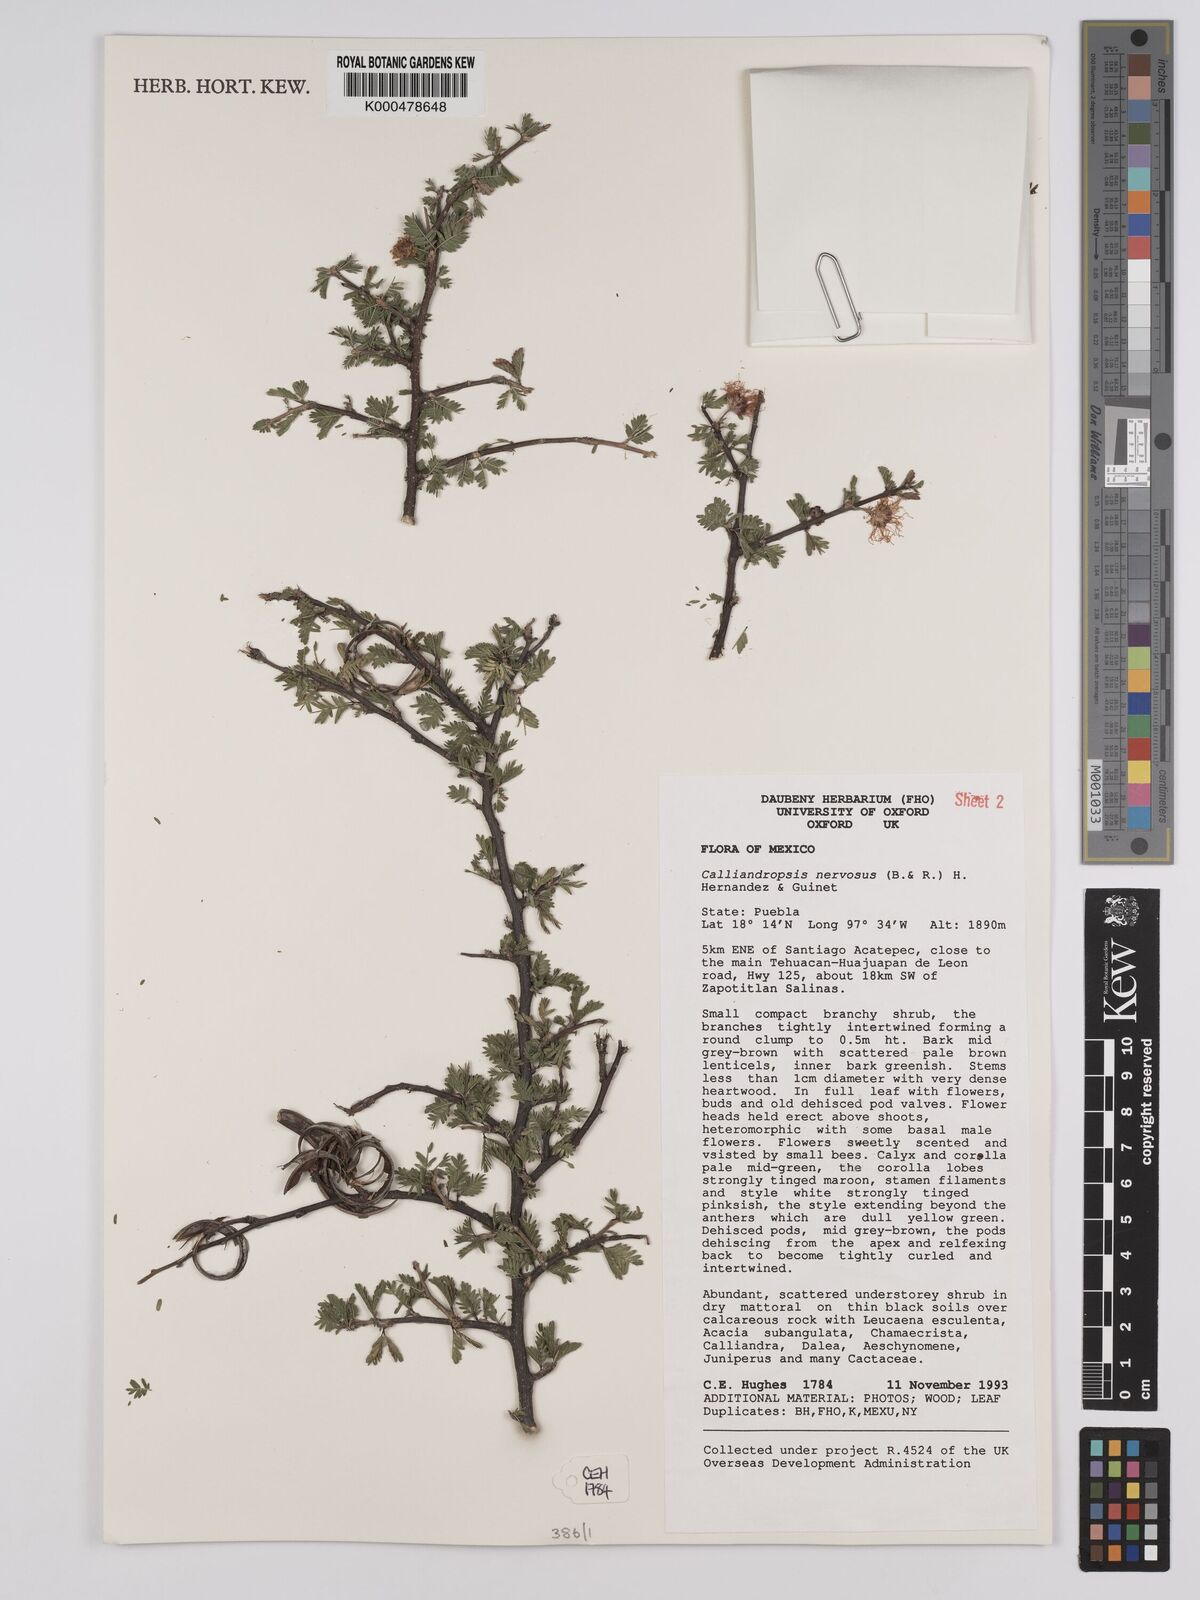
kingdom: Plantae
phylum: Tracheophyta
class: Magnoliopsida
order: Fabales
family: Fabaceae
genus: Calliandropsis
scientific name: Calliandropsis nervosa
